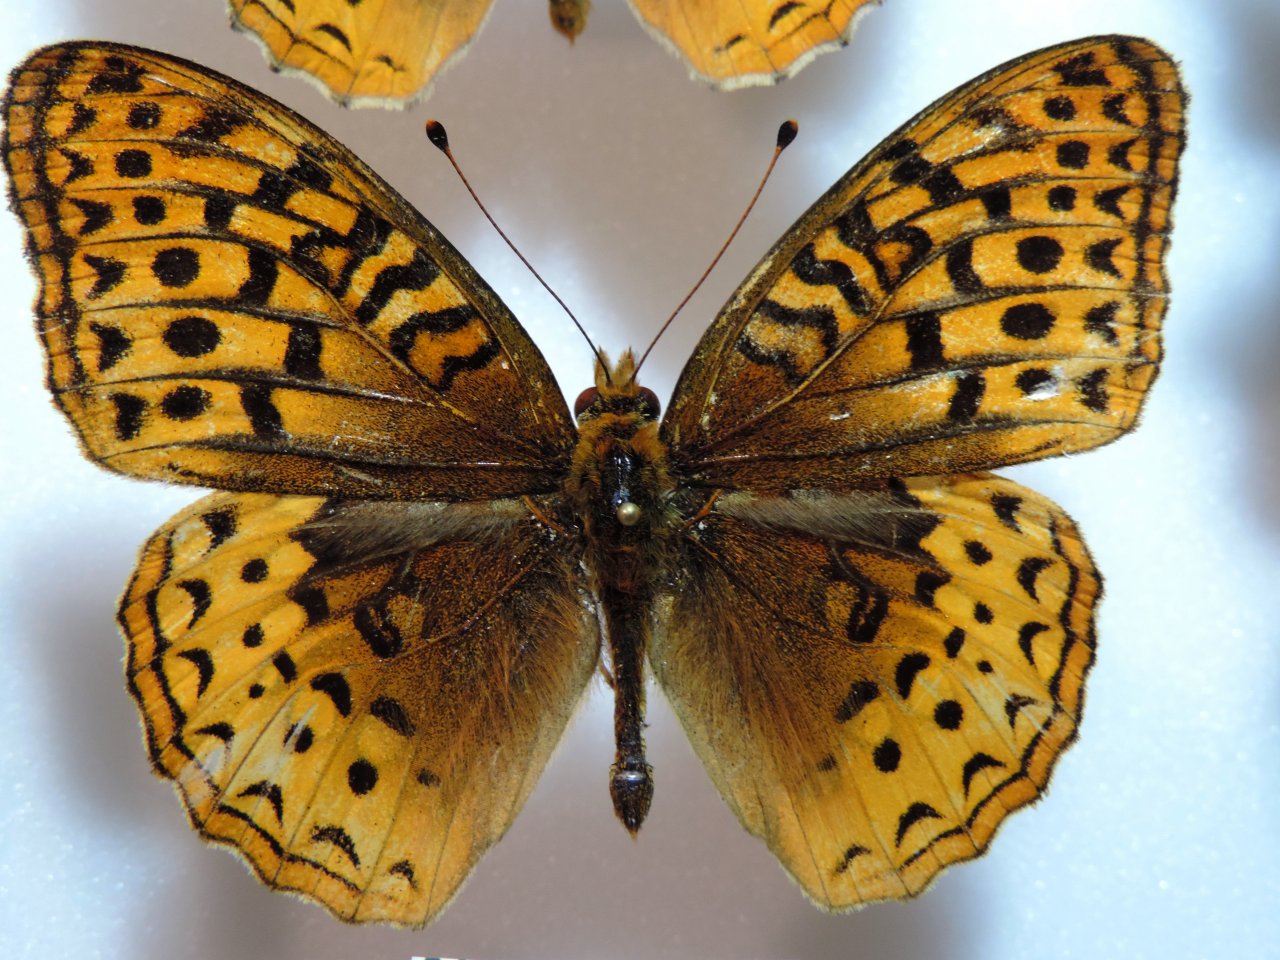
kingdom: Animalia
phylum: Arthropoda
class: Insecta
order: Lepidoptera
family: Nymphalidae
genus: Speyeria
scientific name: Speyeria cybele
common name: Great Spangled Fritillary
